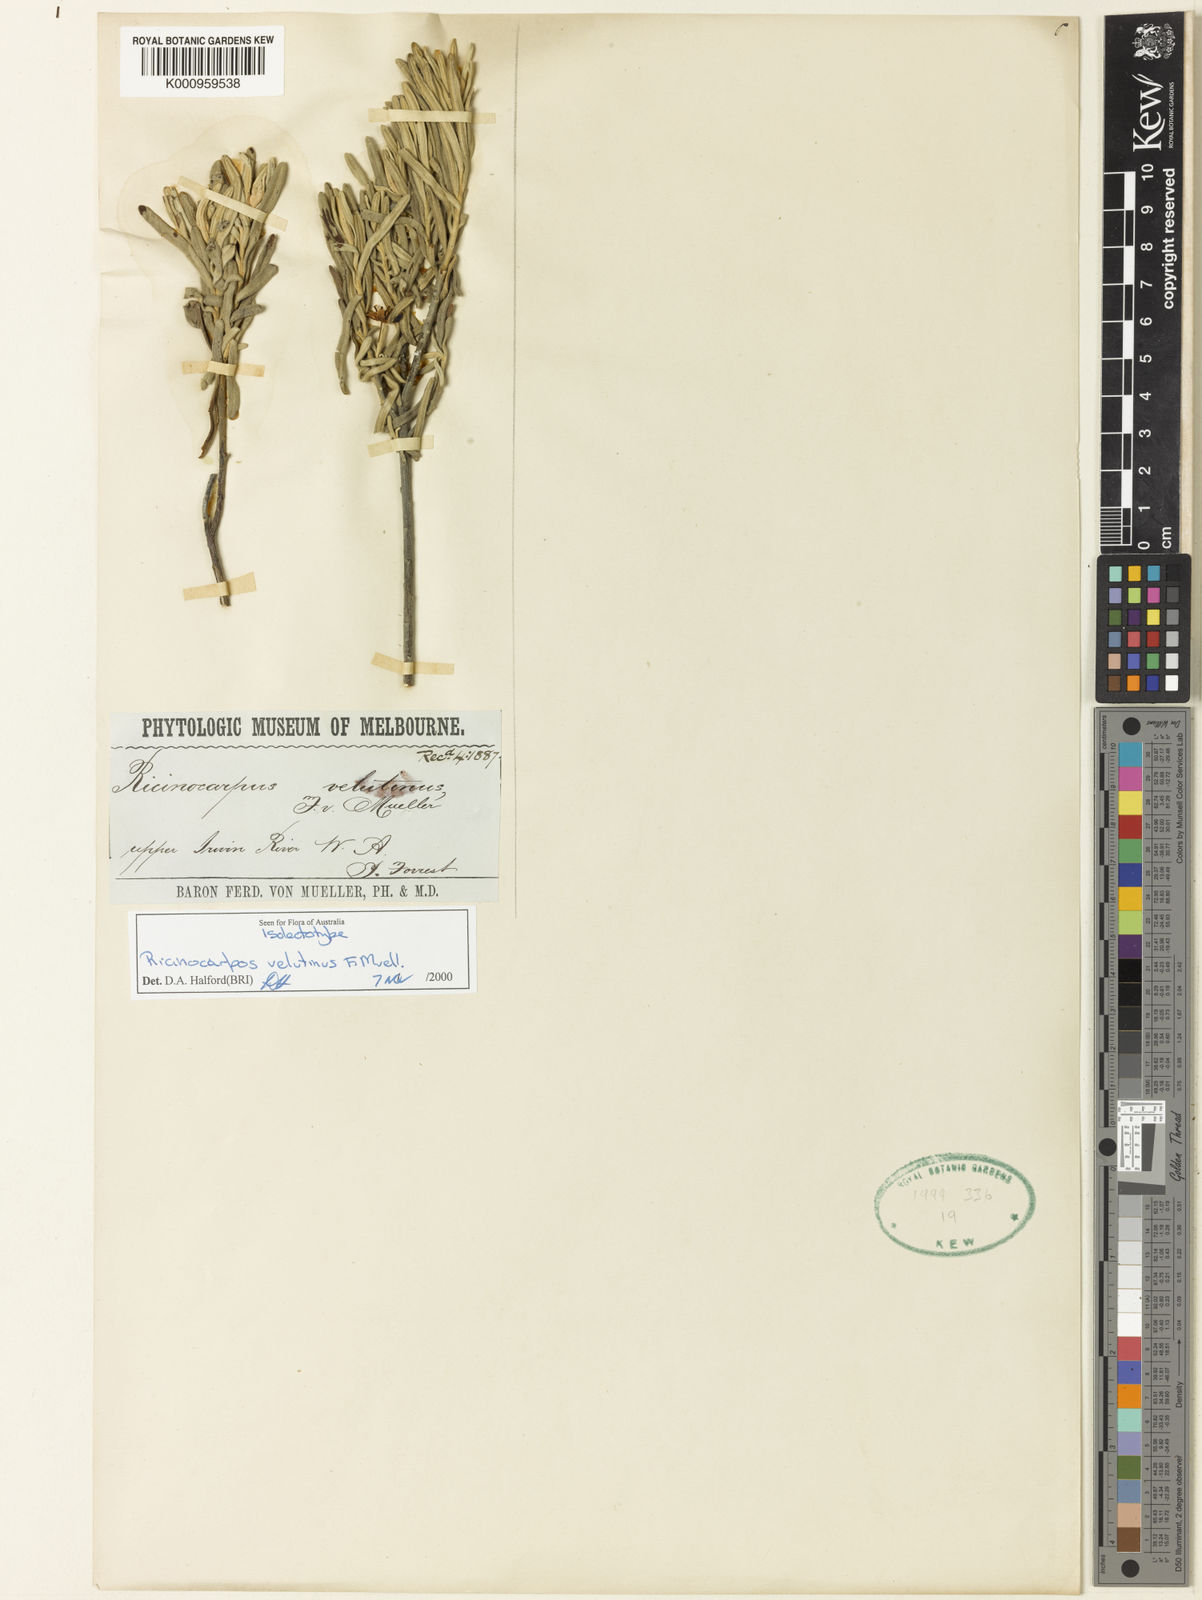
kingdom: Plantae
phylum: Tracheophyta
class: Magnoliopsida
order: Malpighiales
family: Euphorbiaceae
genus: Ricinocarpos
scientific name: Ricinocarpos velutinus
